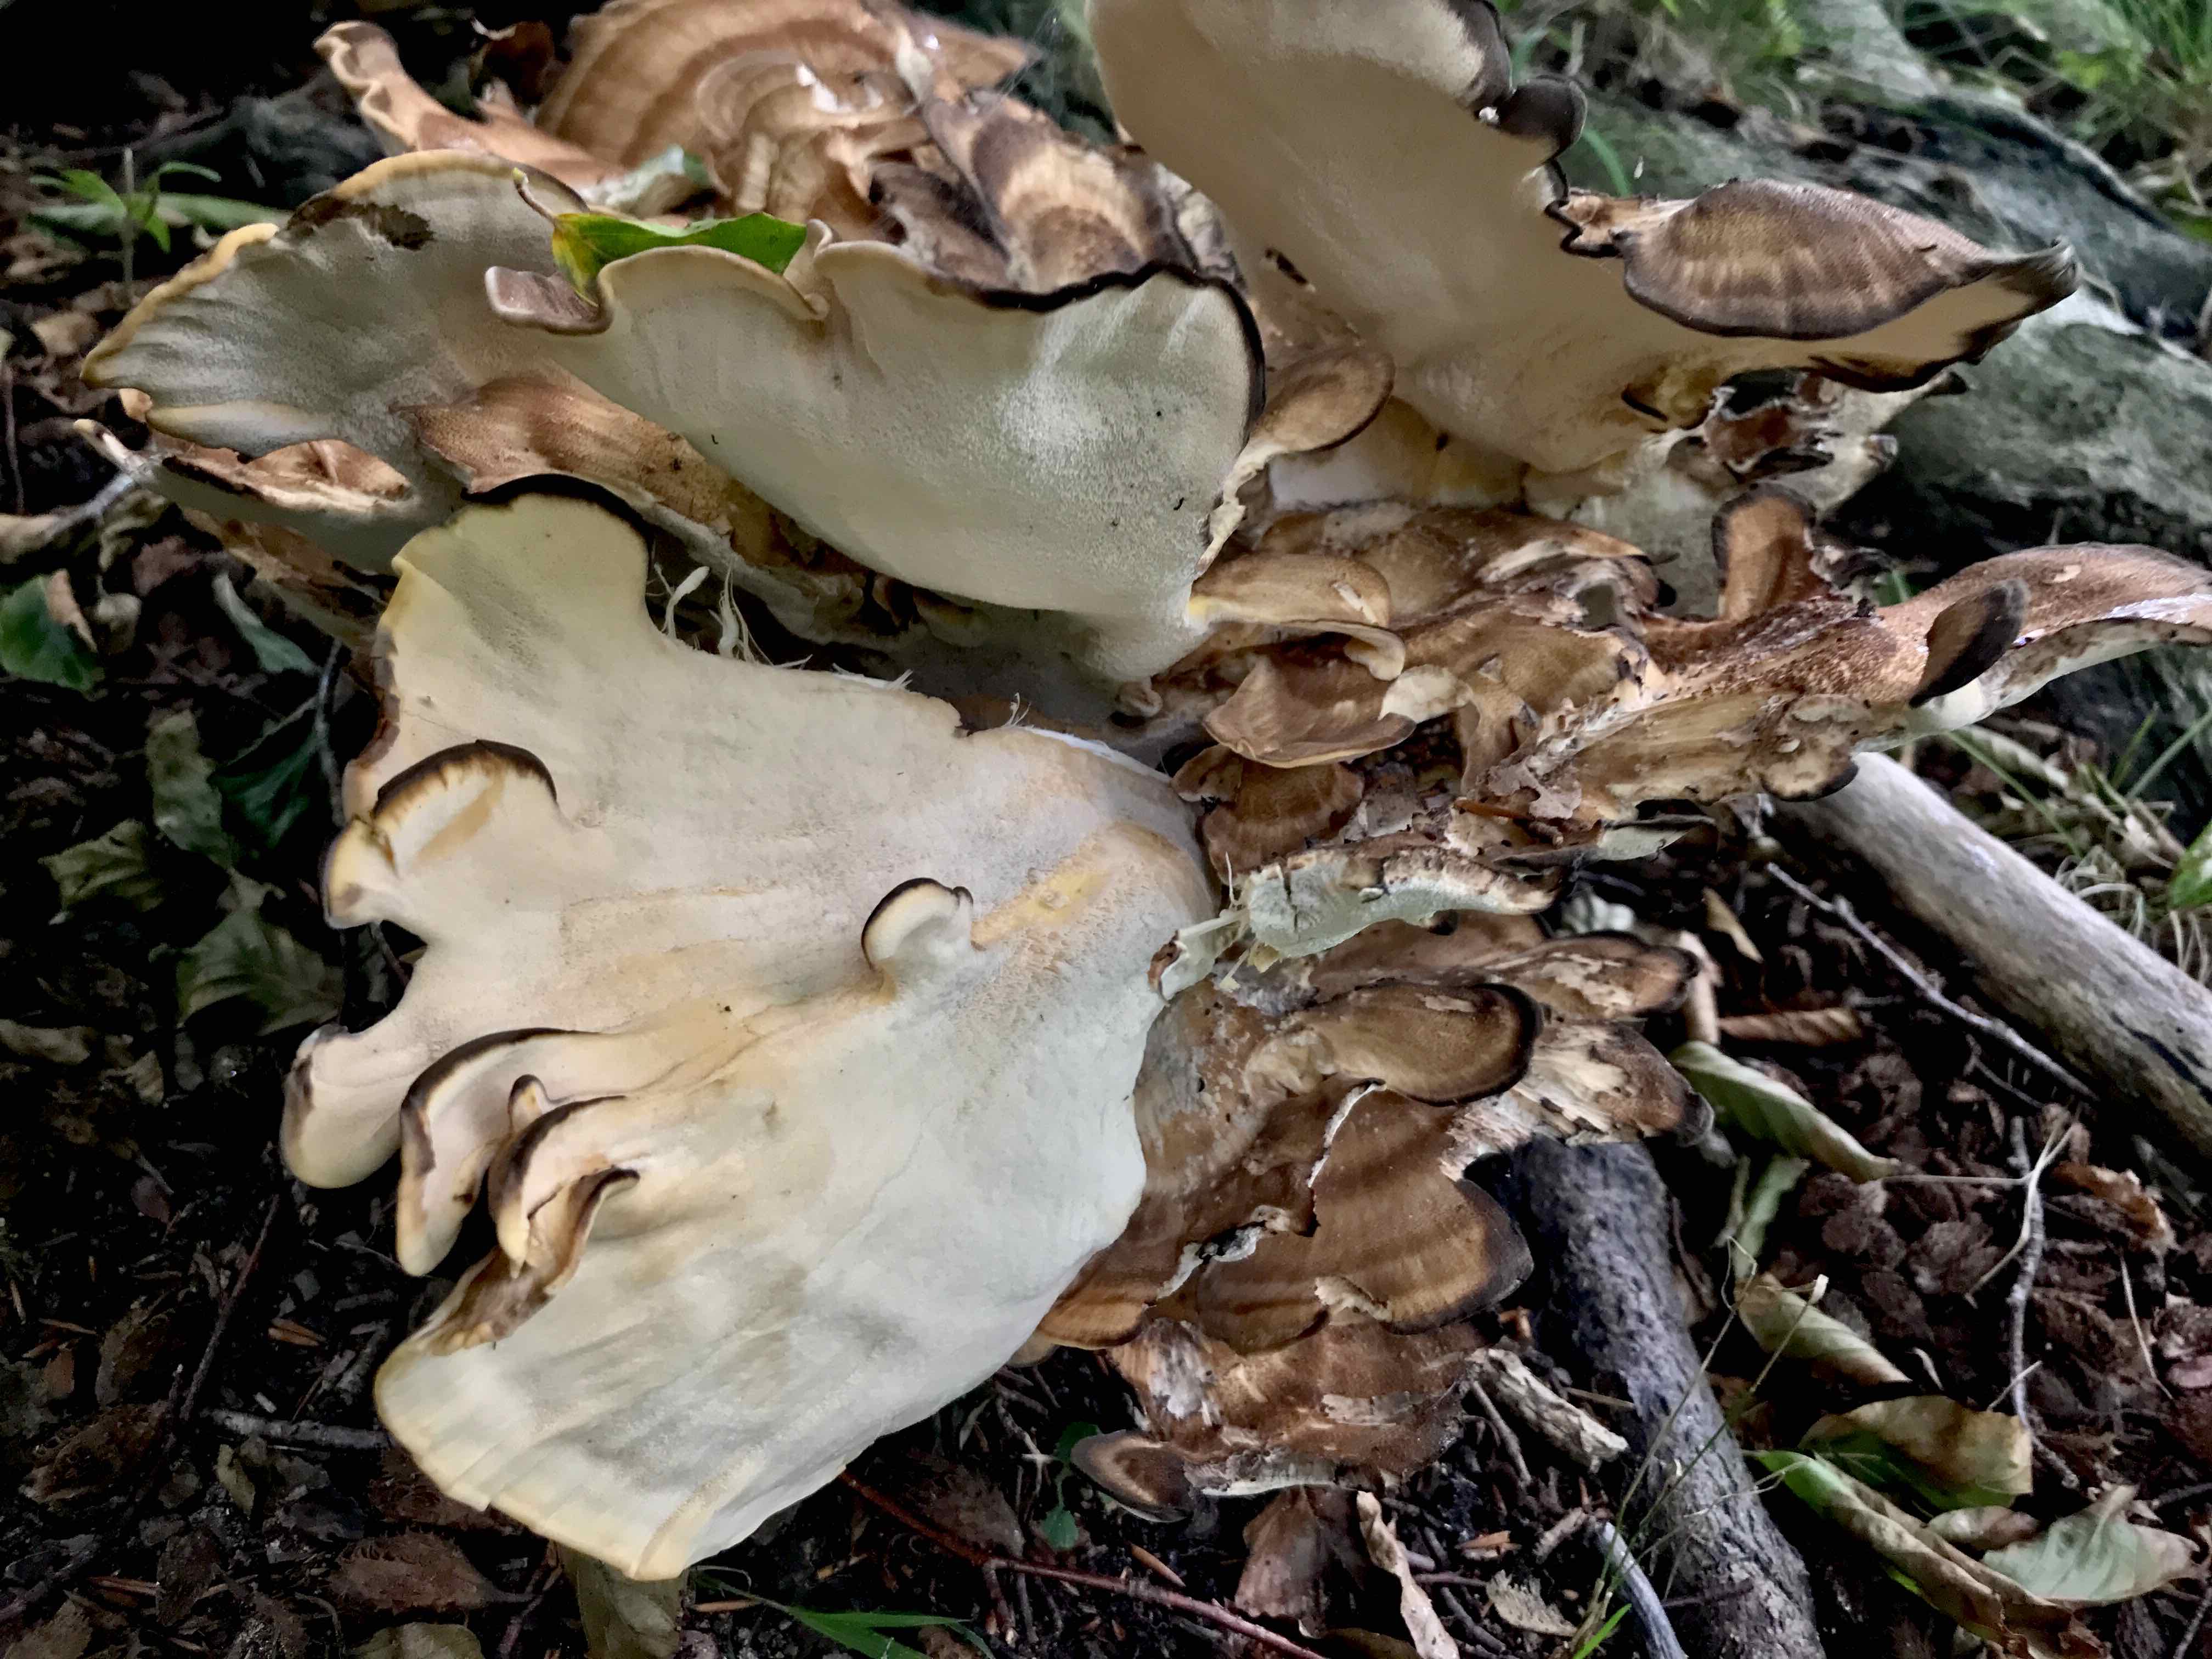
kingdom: Fungi
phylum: Basidiomycota
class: Agaricomycetes
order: Polyporales
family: Meripilaceae
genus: Meripilus
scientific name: Meripilus giganteus
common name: kæmpeporesvamp
